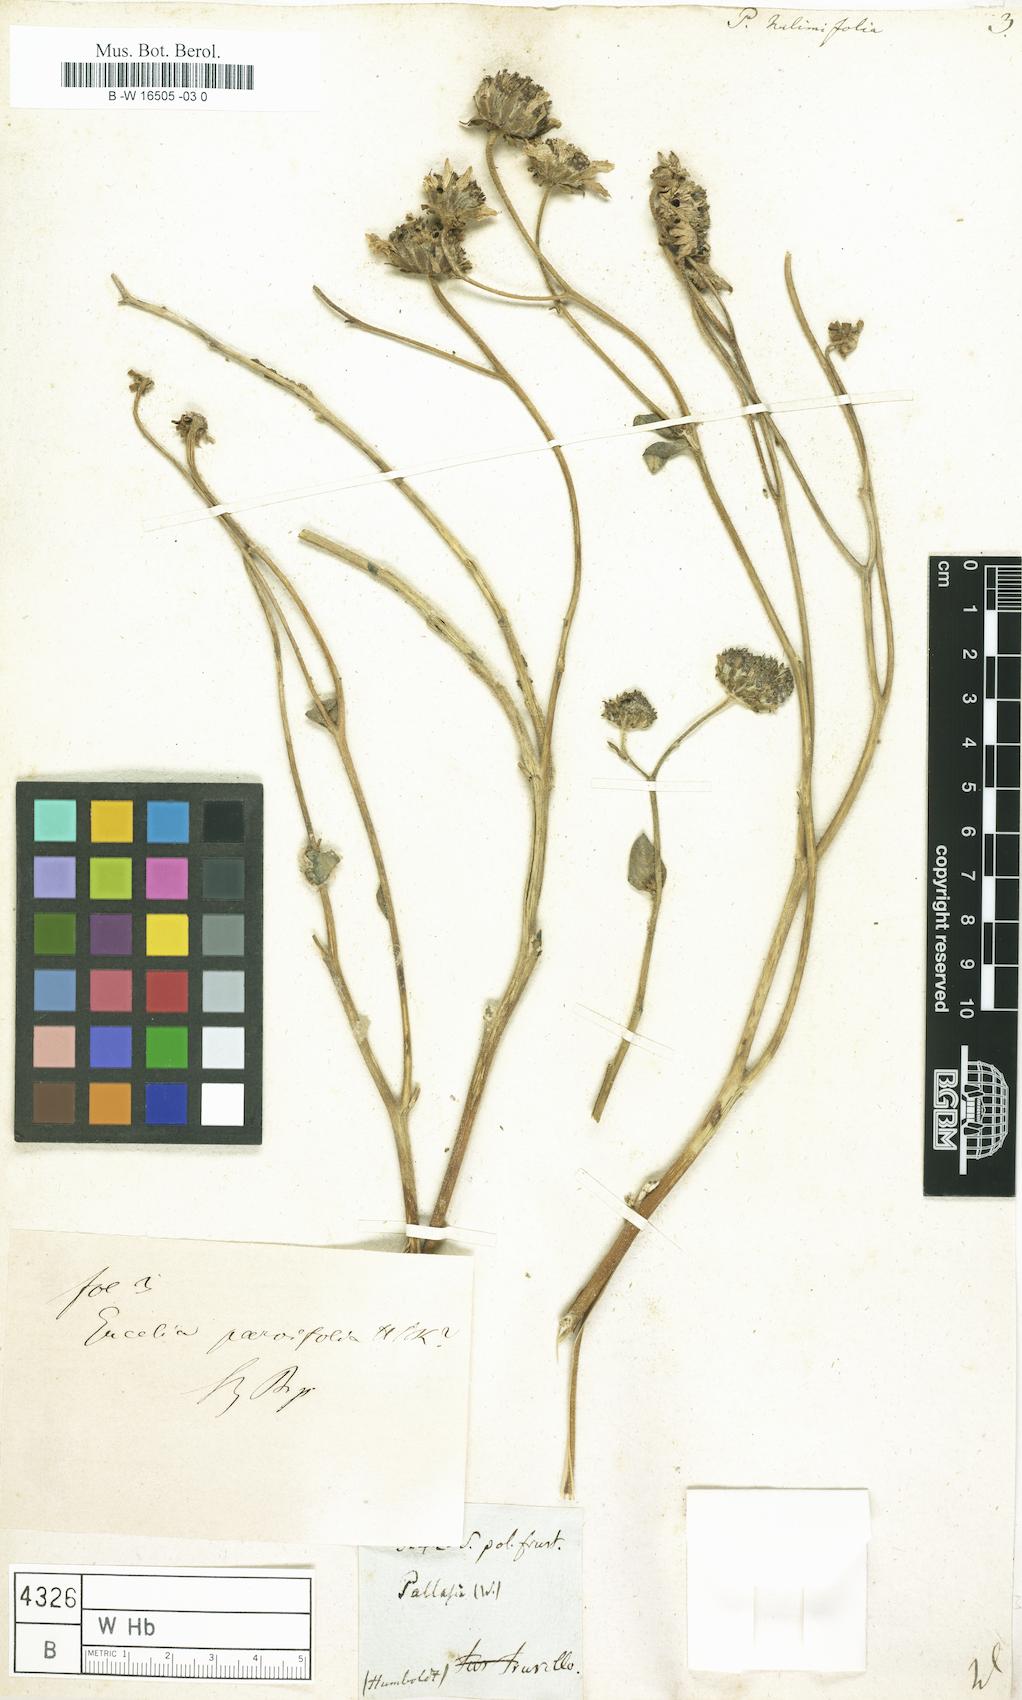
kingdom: Plantae
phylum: Tracheophyta
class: Magnoliopsida
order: Asterales
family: Asteraceae
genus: Encelia
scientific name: Encelia canescens
